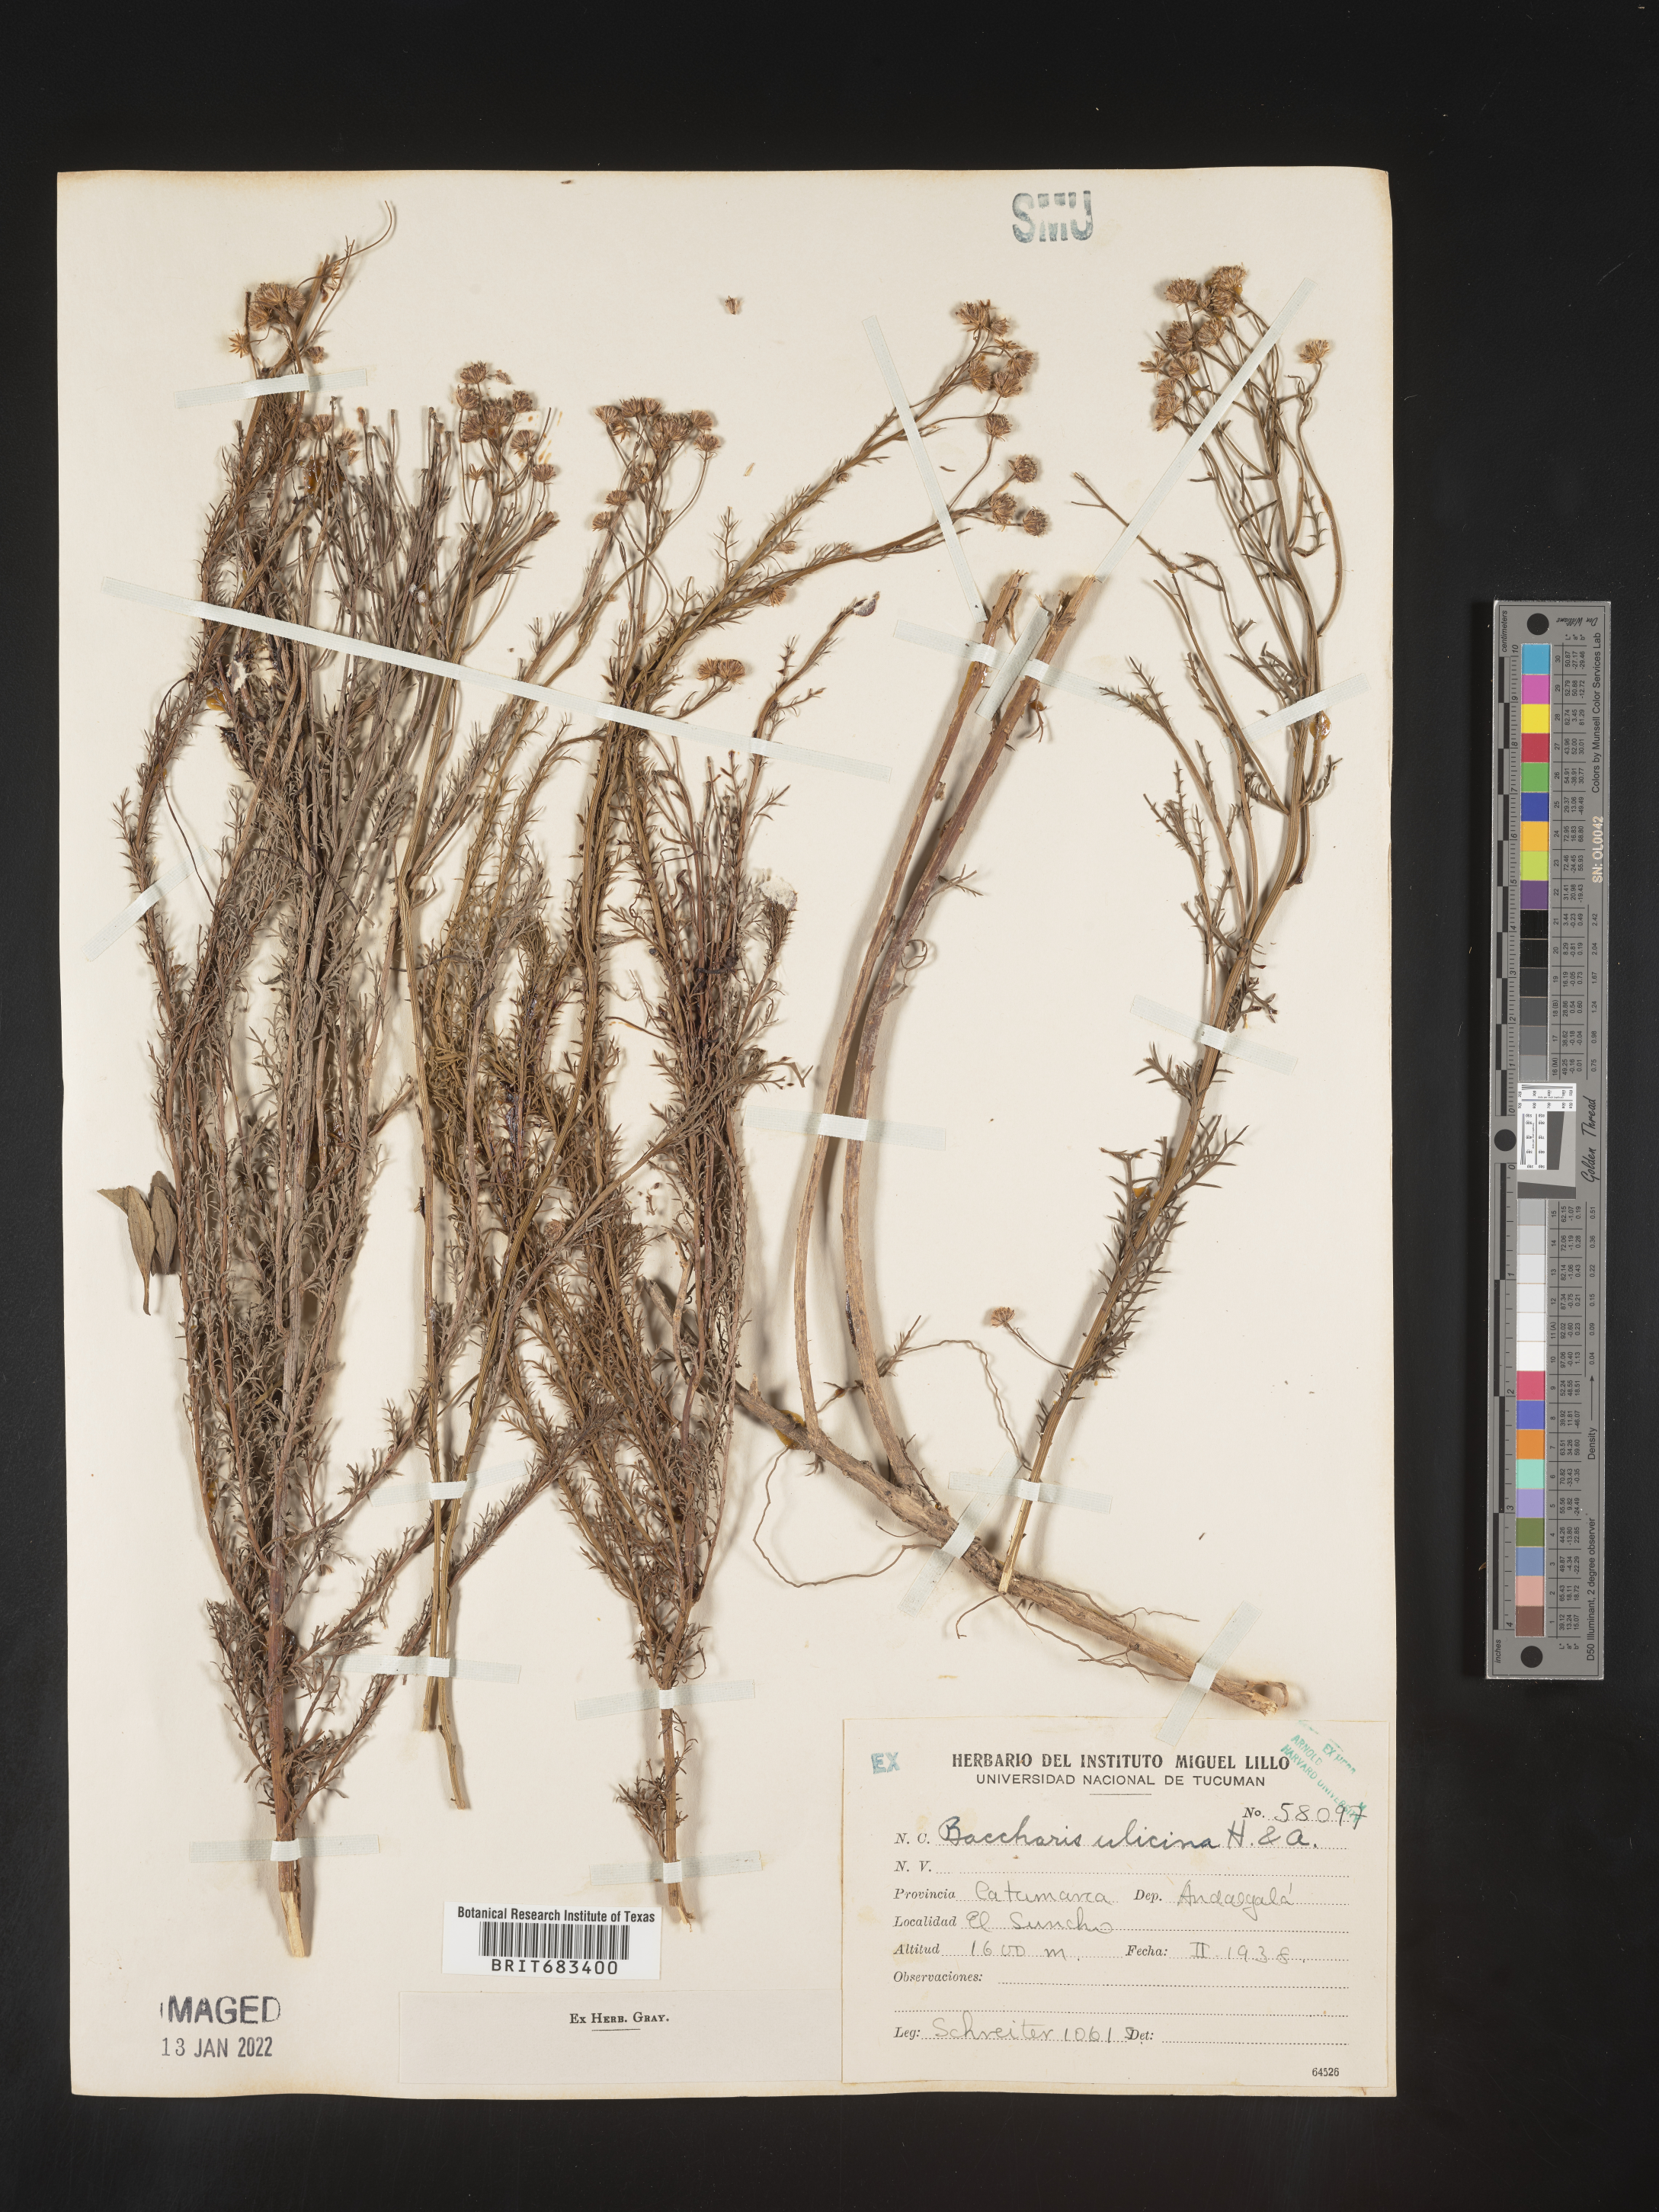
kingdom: Plantae
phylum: Tracheophyta
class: Magnoliopsida
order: Asterales
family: Asteraceae
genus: Baccharis
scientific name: Baccharis
